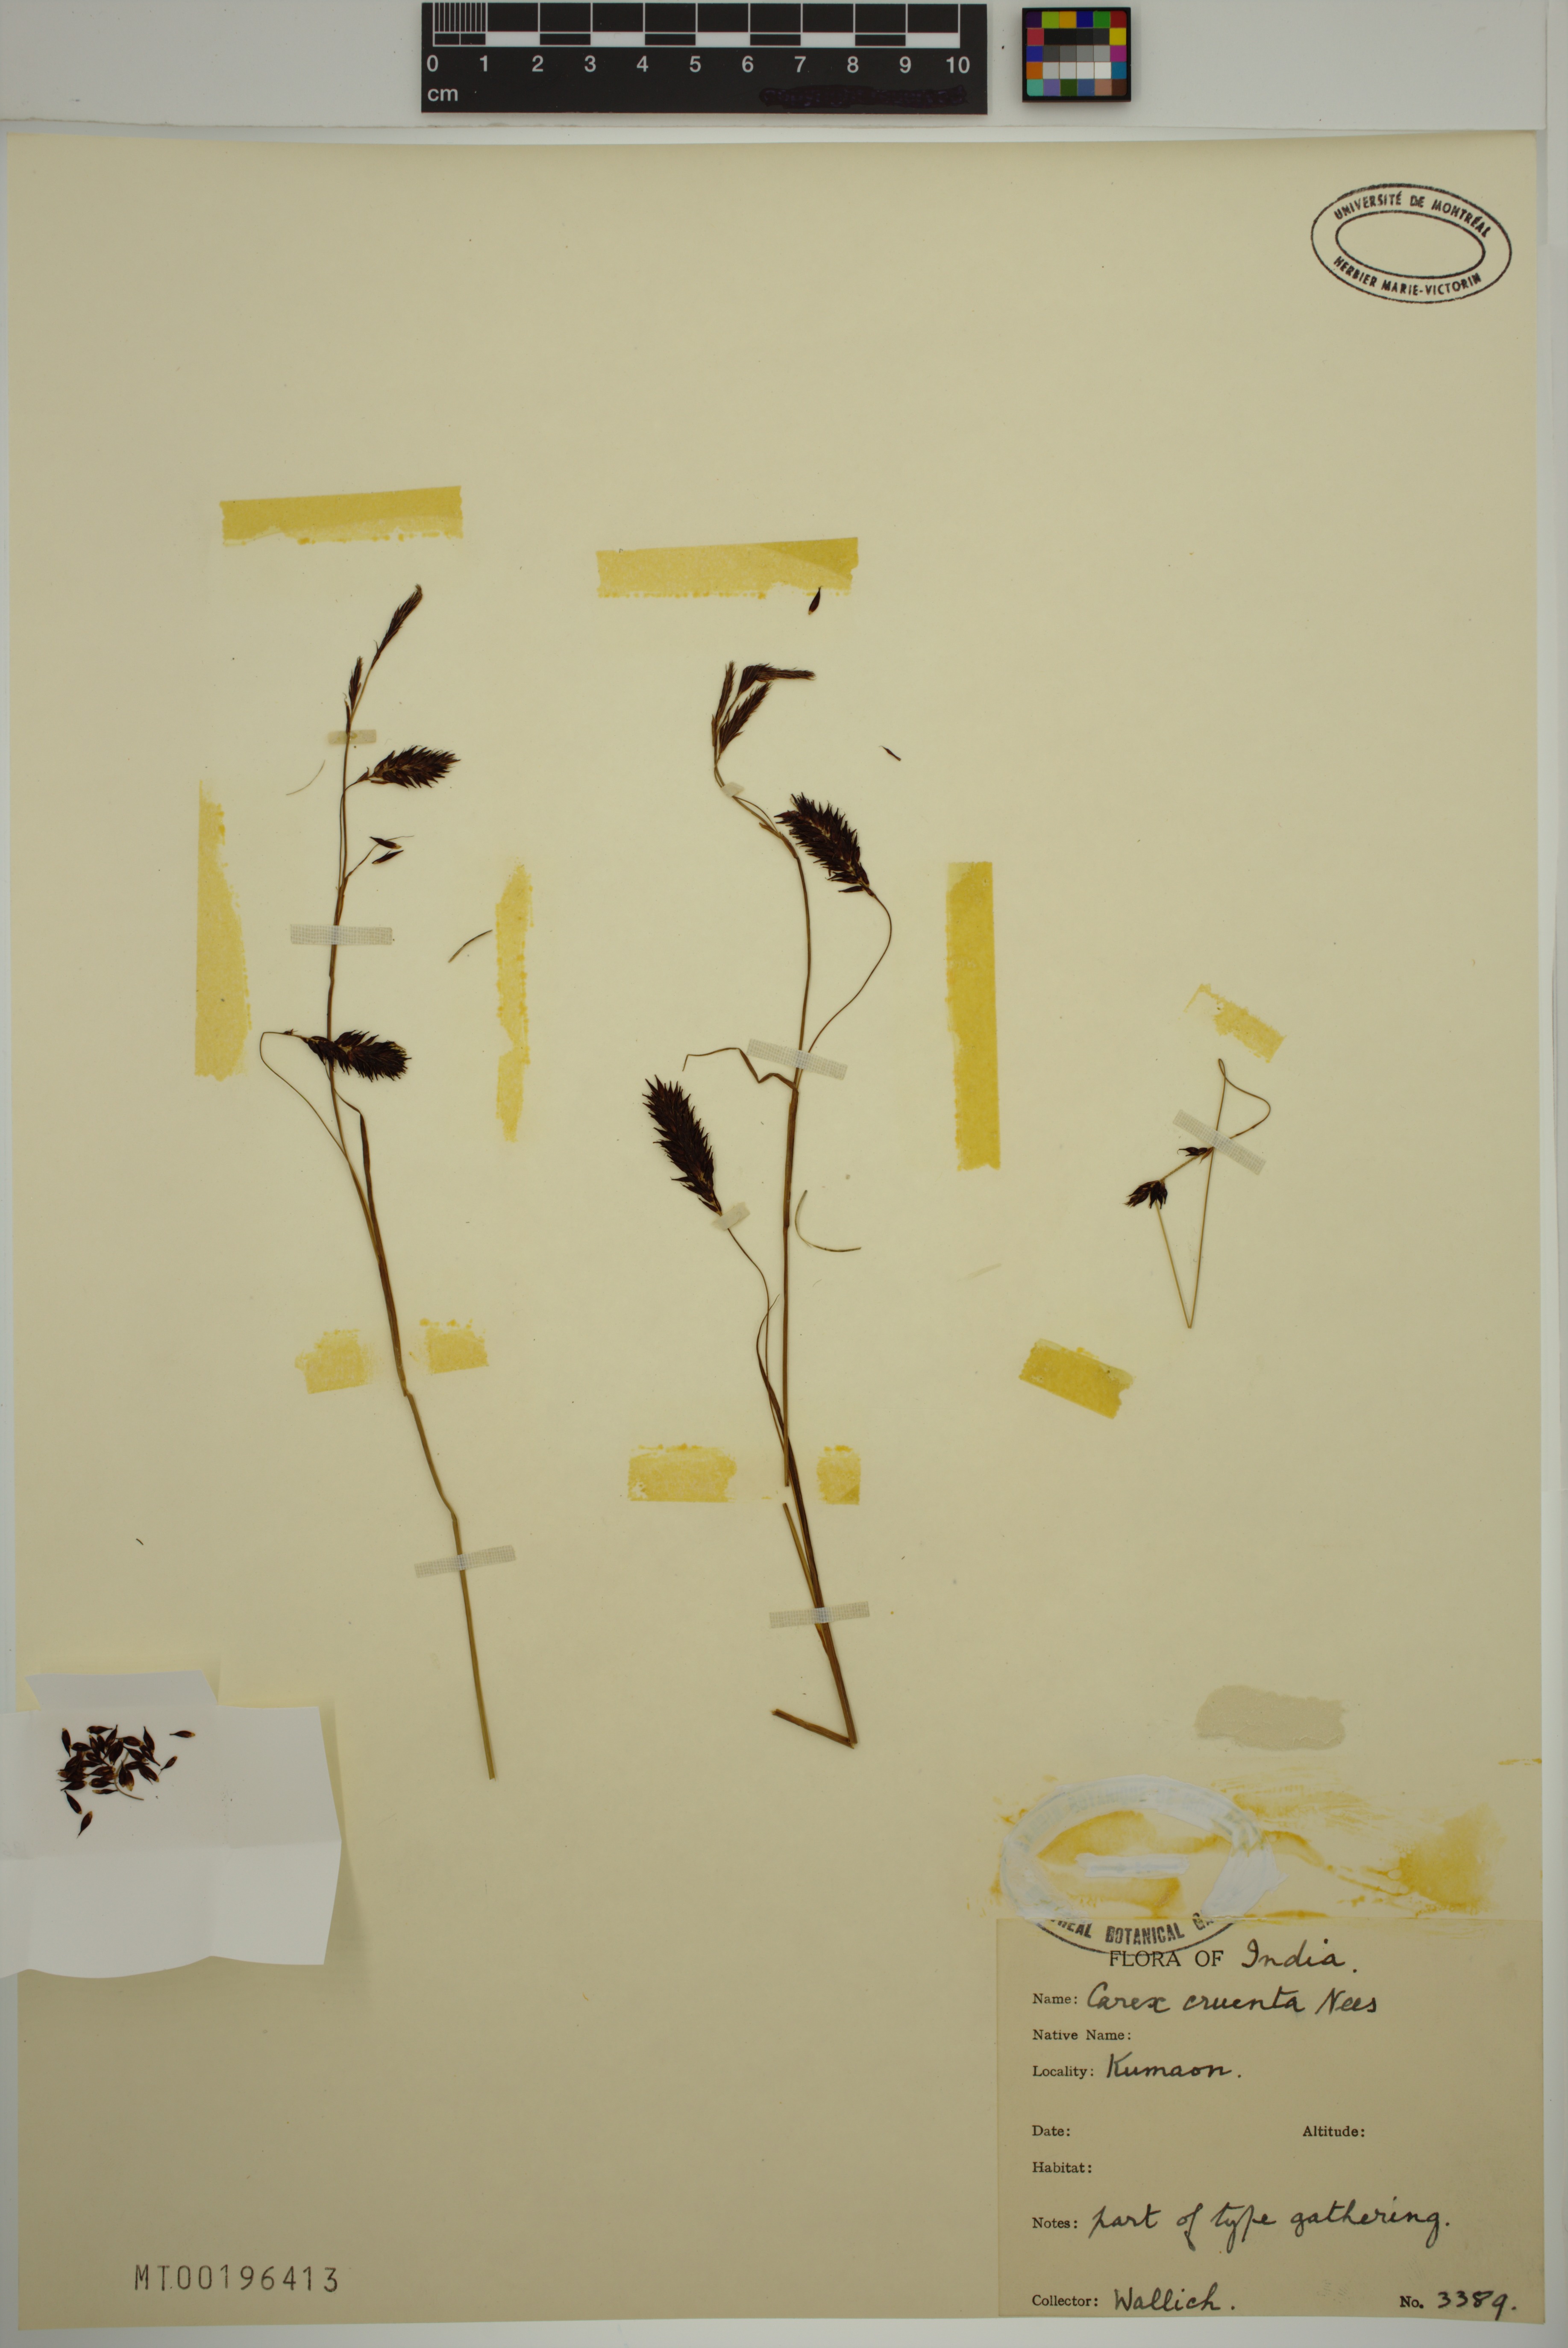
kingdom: Plantae
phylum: Tracheophyta
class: Liliopsida
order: Poales
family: Cyperaceae
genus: Carex
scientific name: Carex cruenta
